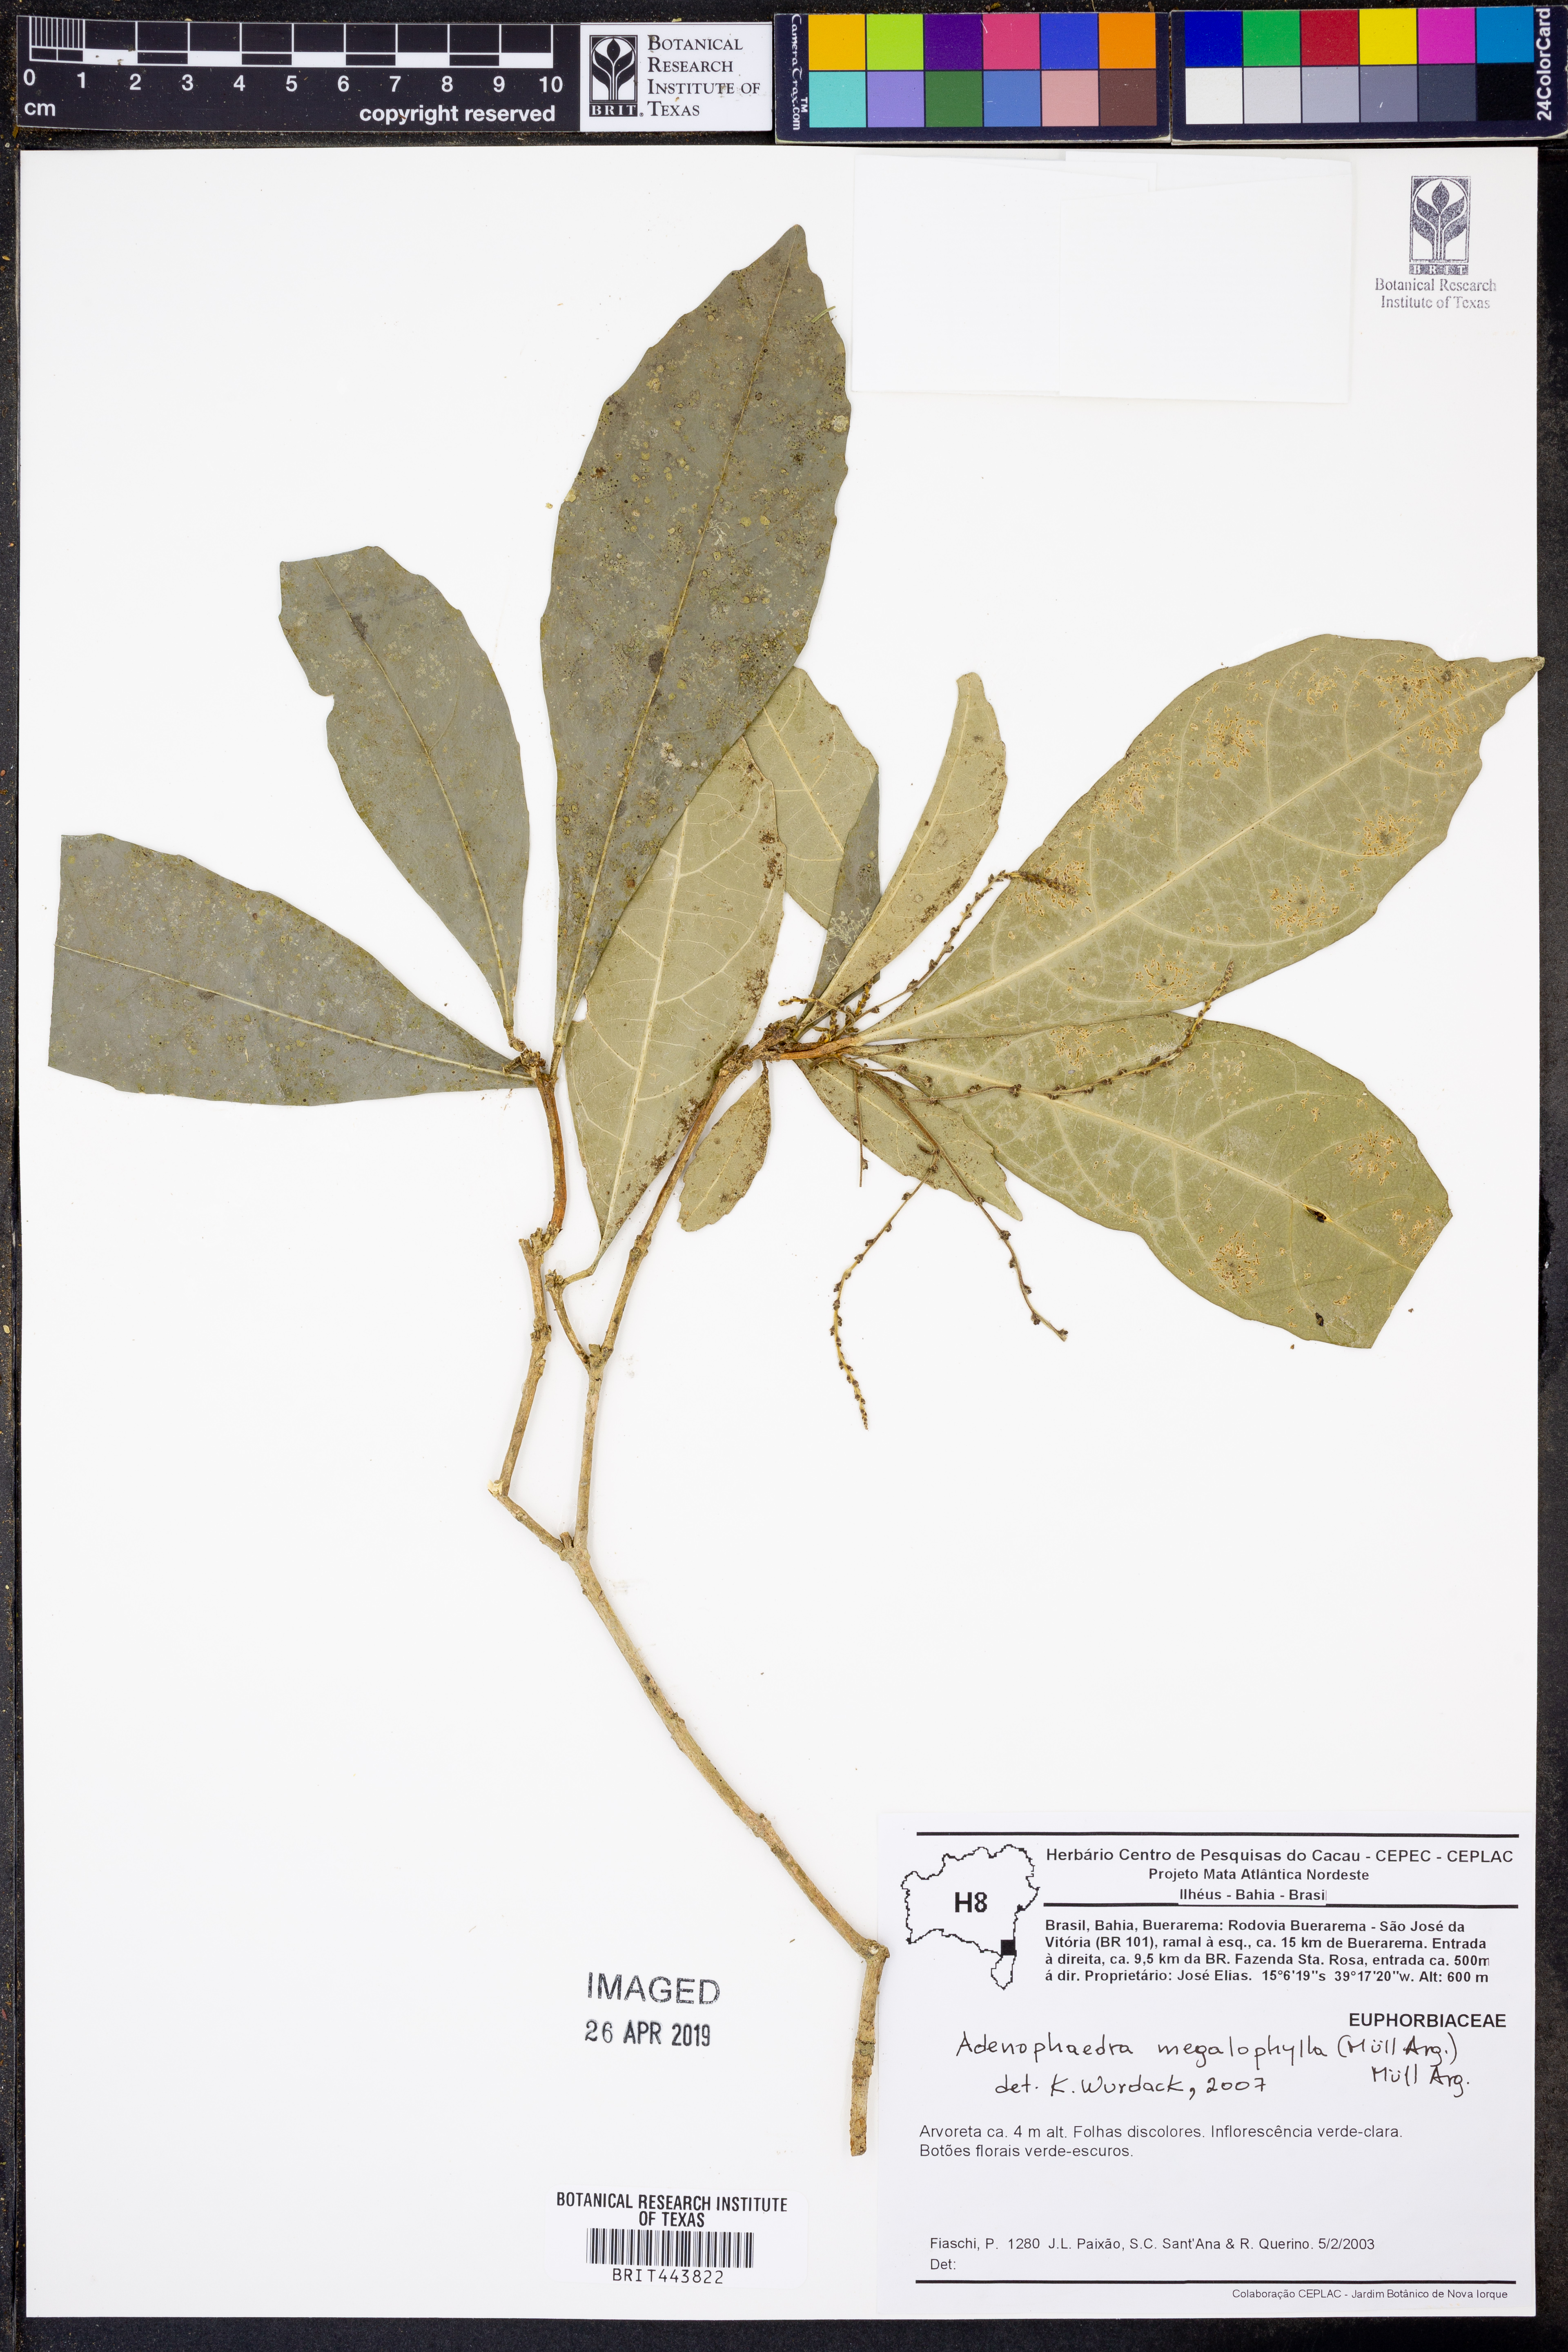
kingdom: Plantae
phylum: Tracheophyta
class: Magnoliopsida
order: Malpighiales
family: Euphorbiaceae
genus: Adenophaedra
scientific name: Adenophaedra megalophylla
